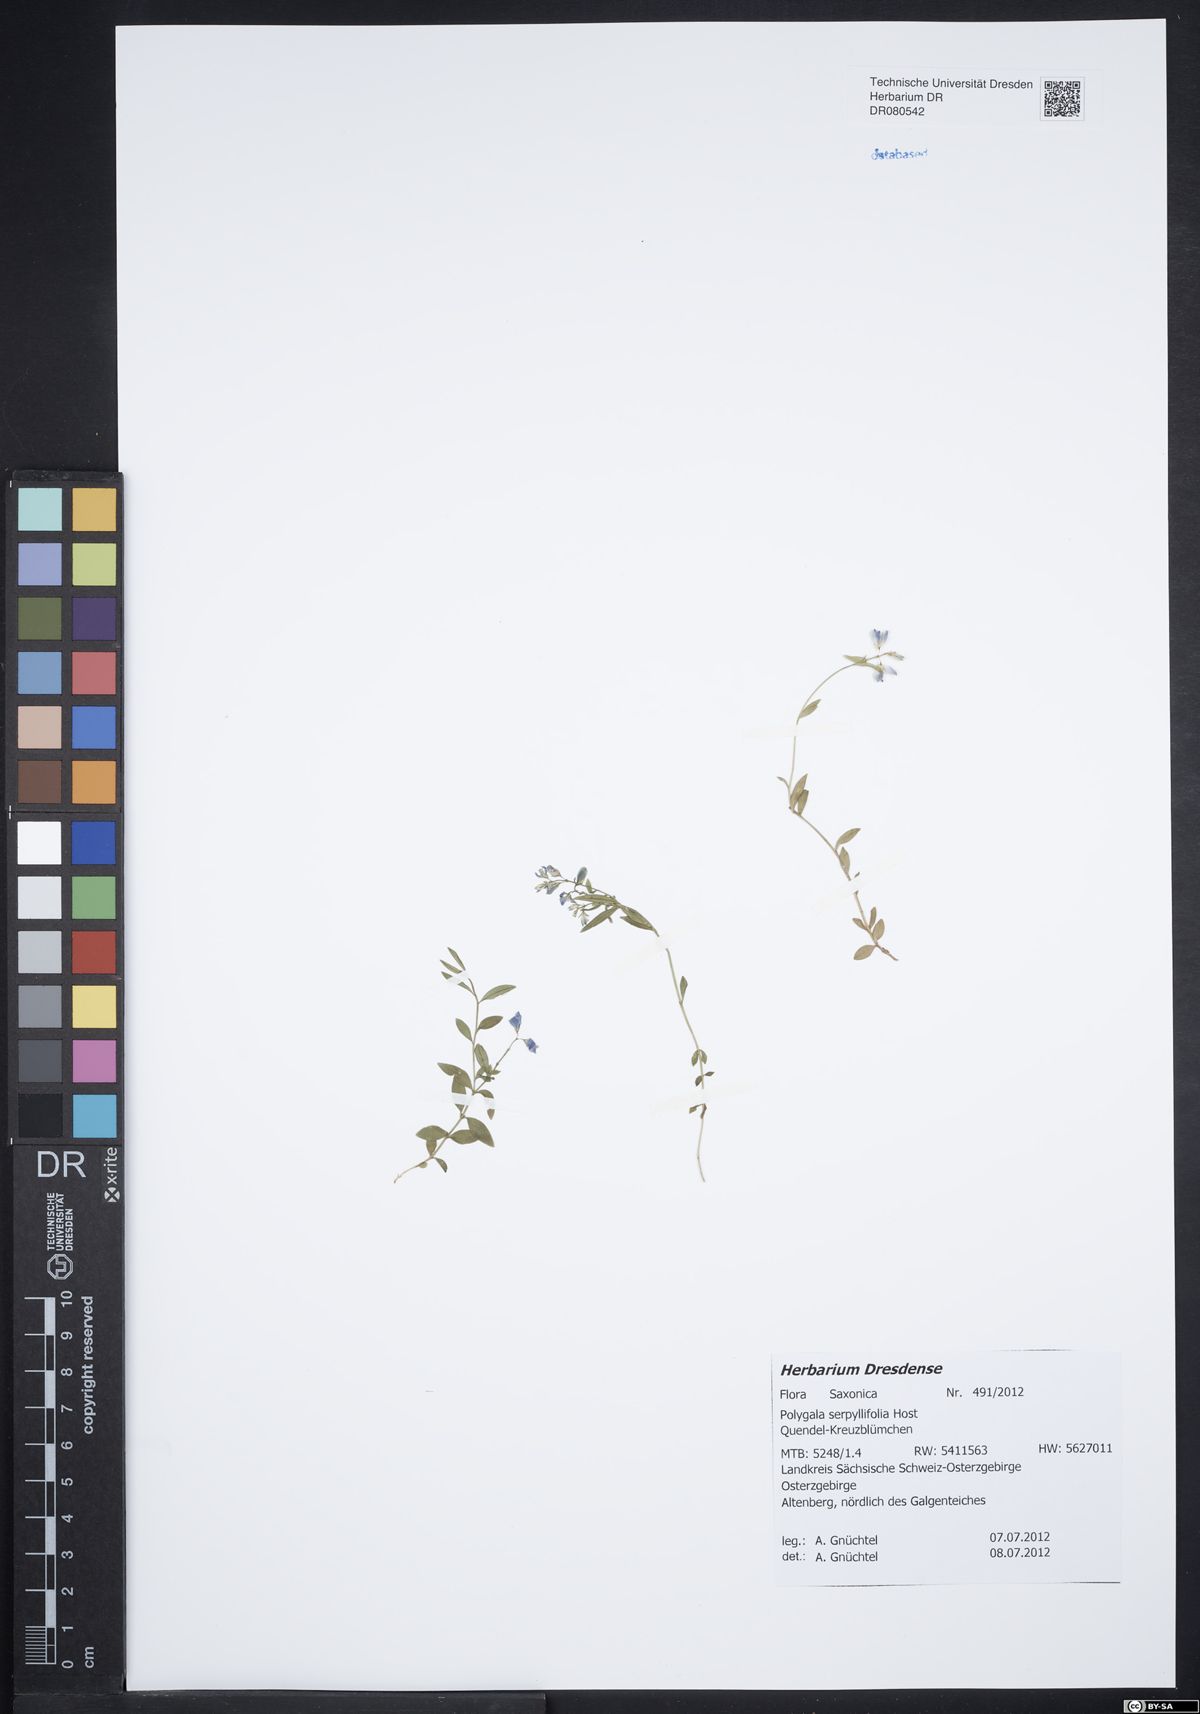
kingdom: Plantae
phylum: Tracheophyta
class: Magnoliopsida
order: Fabales
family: Polygalaceae
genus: Polygala
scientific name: Polygala serpyllifolia
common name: Heath milkwort
